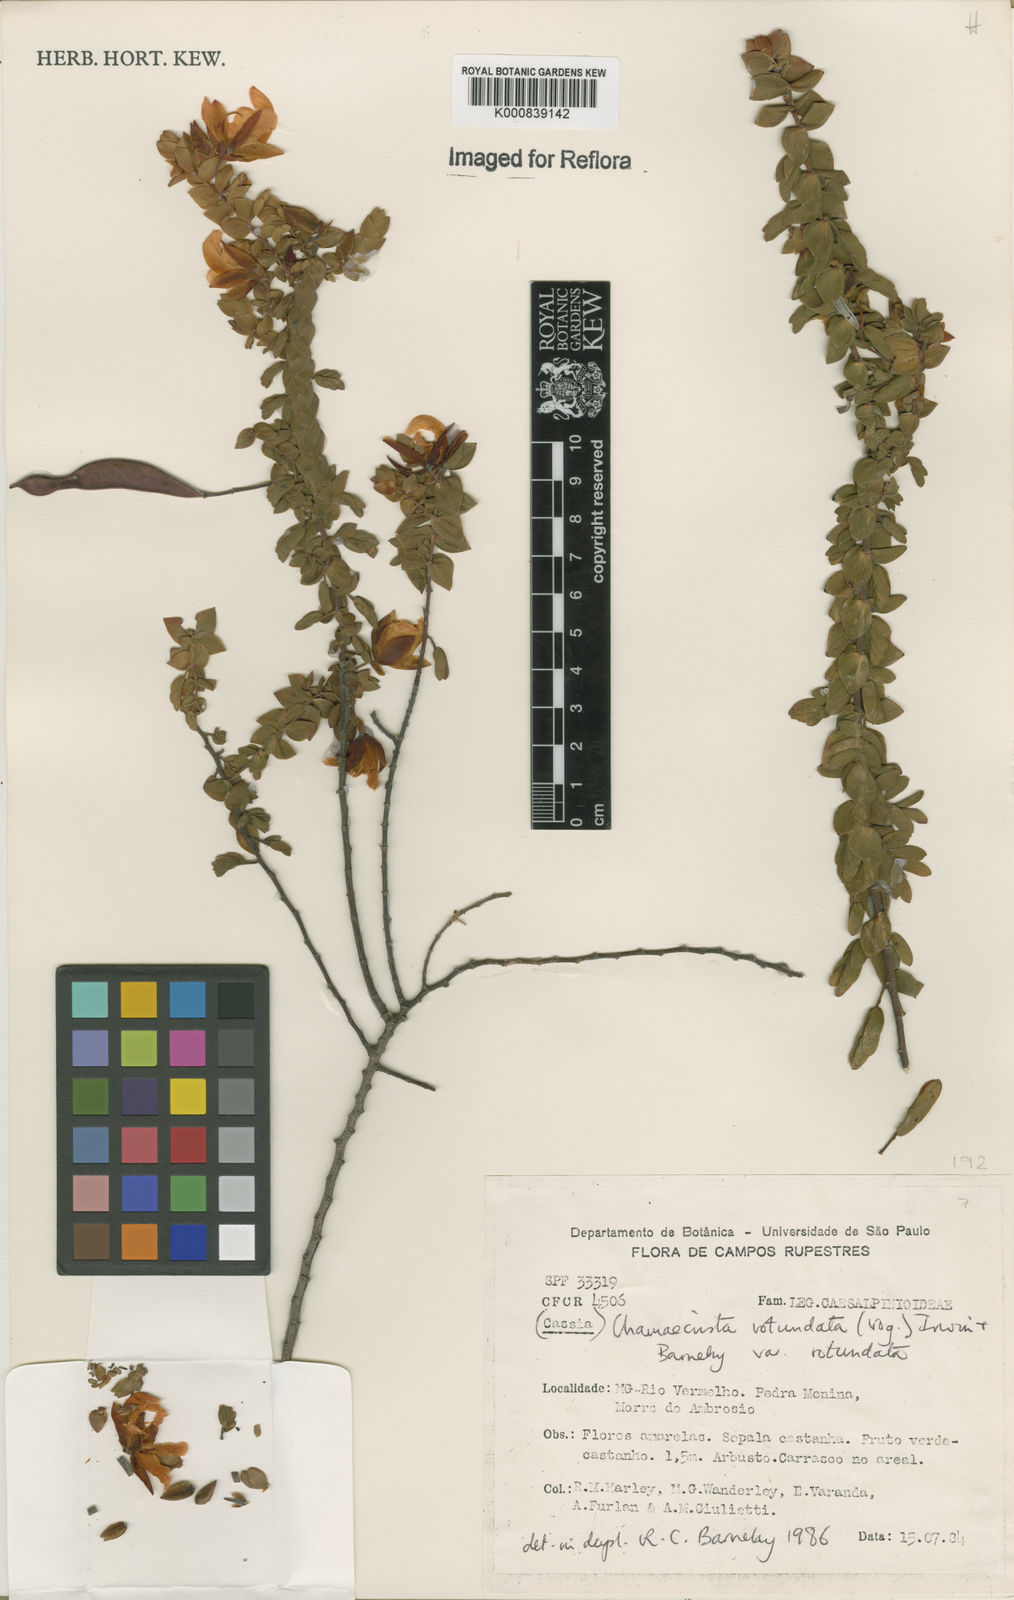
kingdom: Plantae
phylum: Tracheophyta
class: Magnoliopsida
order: Fabales
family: Fabaceae
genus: Chamaecrista
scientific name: Chamaecrista
